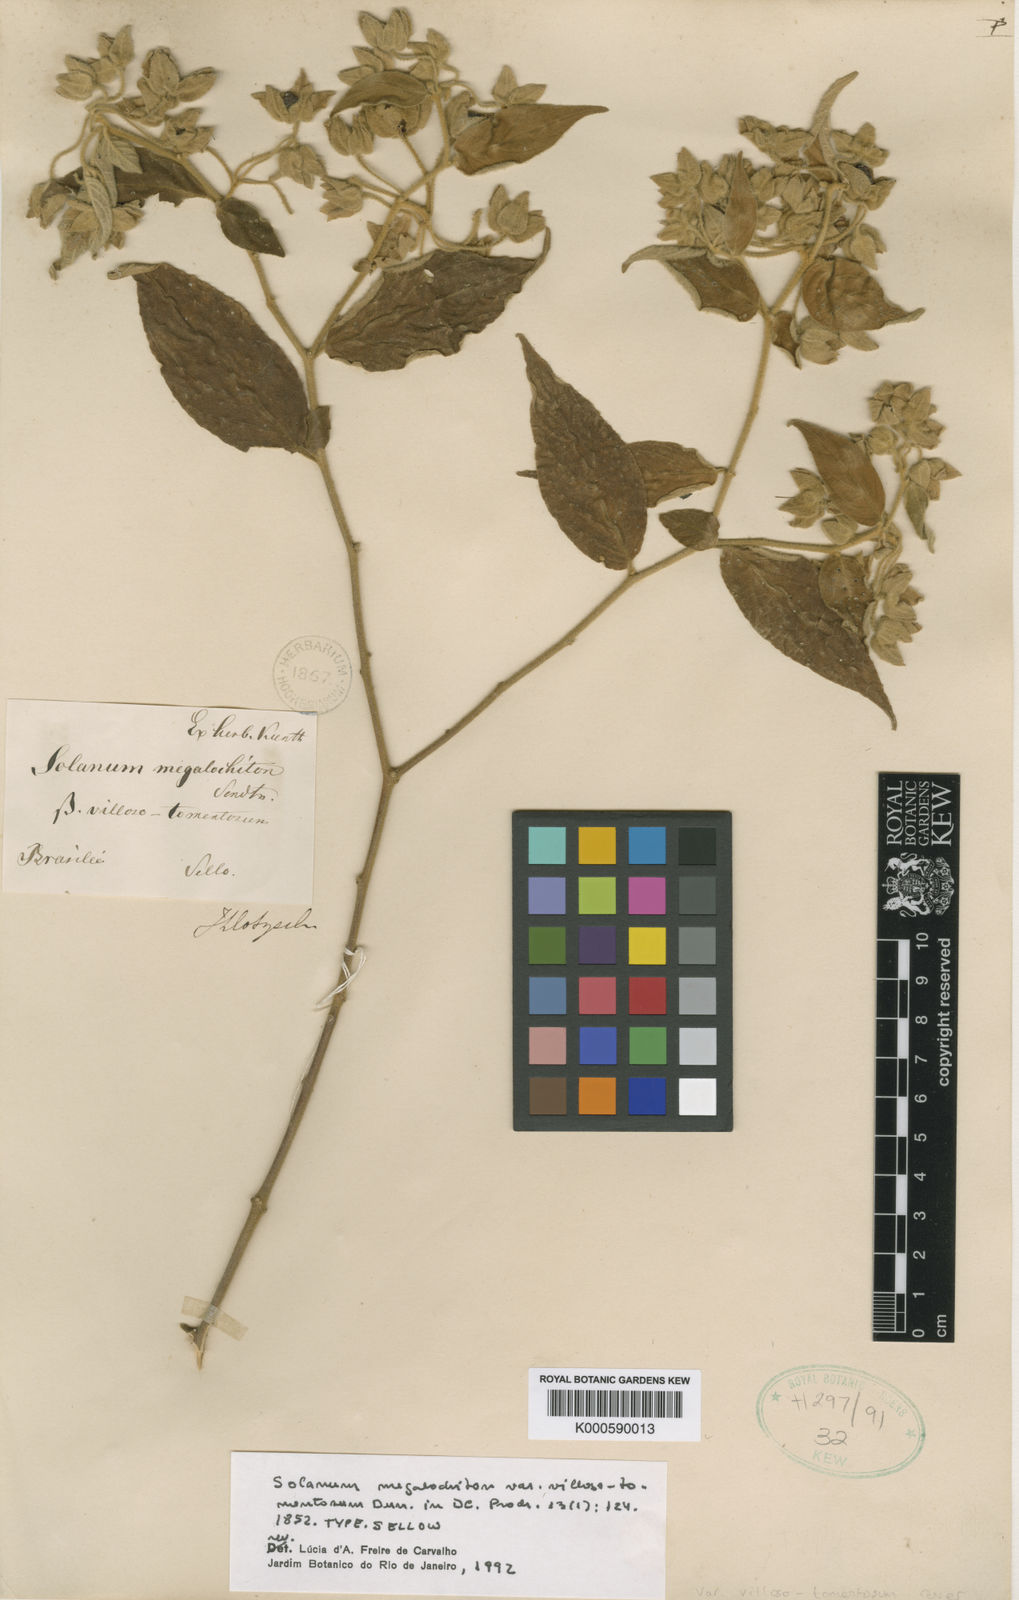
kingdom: Plantae
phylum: Tracheophyta
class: Magnoliopsida
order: Solanales
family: Solanaceae
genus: Solanum
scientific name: Solanum didymum
